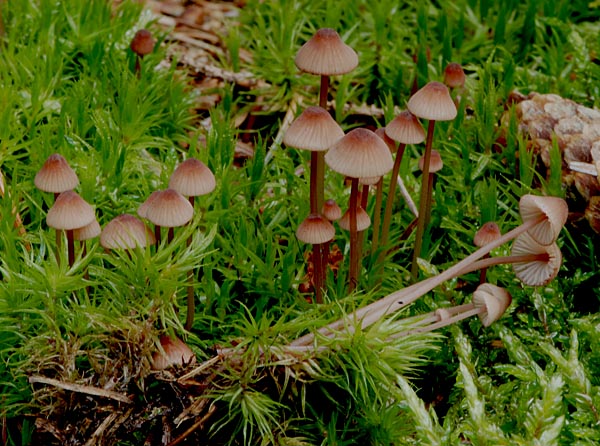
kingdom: Fungi
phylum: Basidiomycota
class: Agaricomycetes
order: Agaricales
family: Mycenaceae
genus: Mycena
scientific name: Mycena sanguinolenta
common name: rødmælket huesvamp
